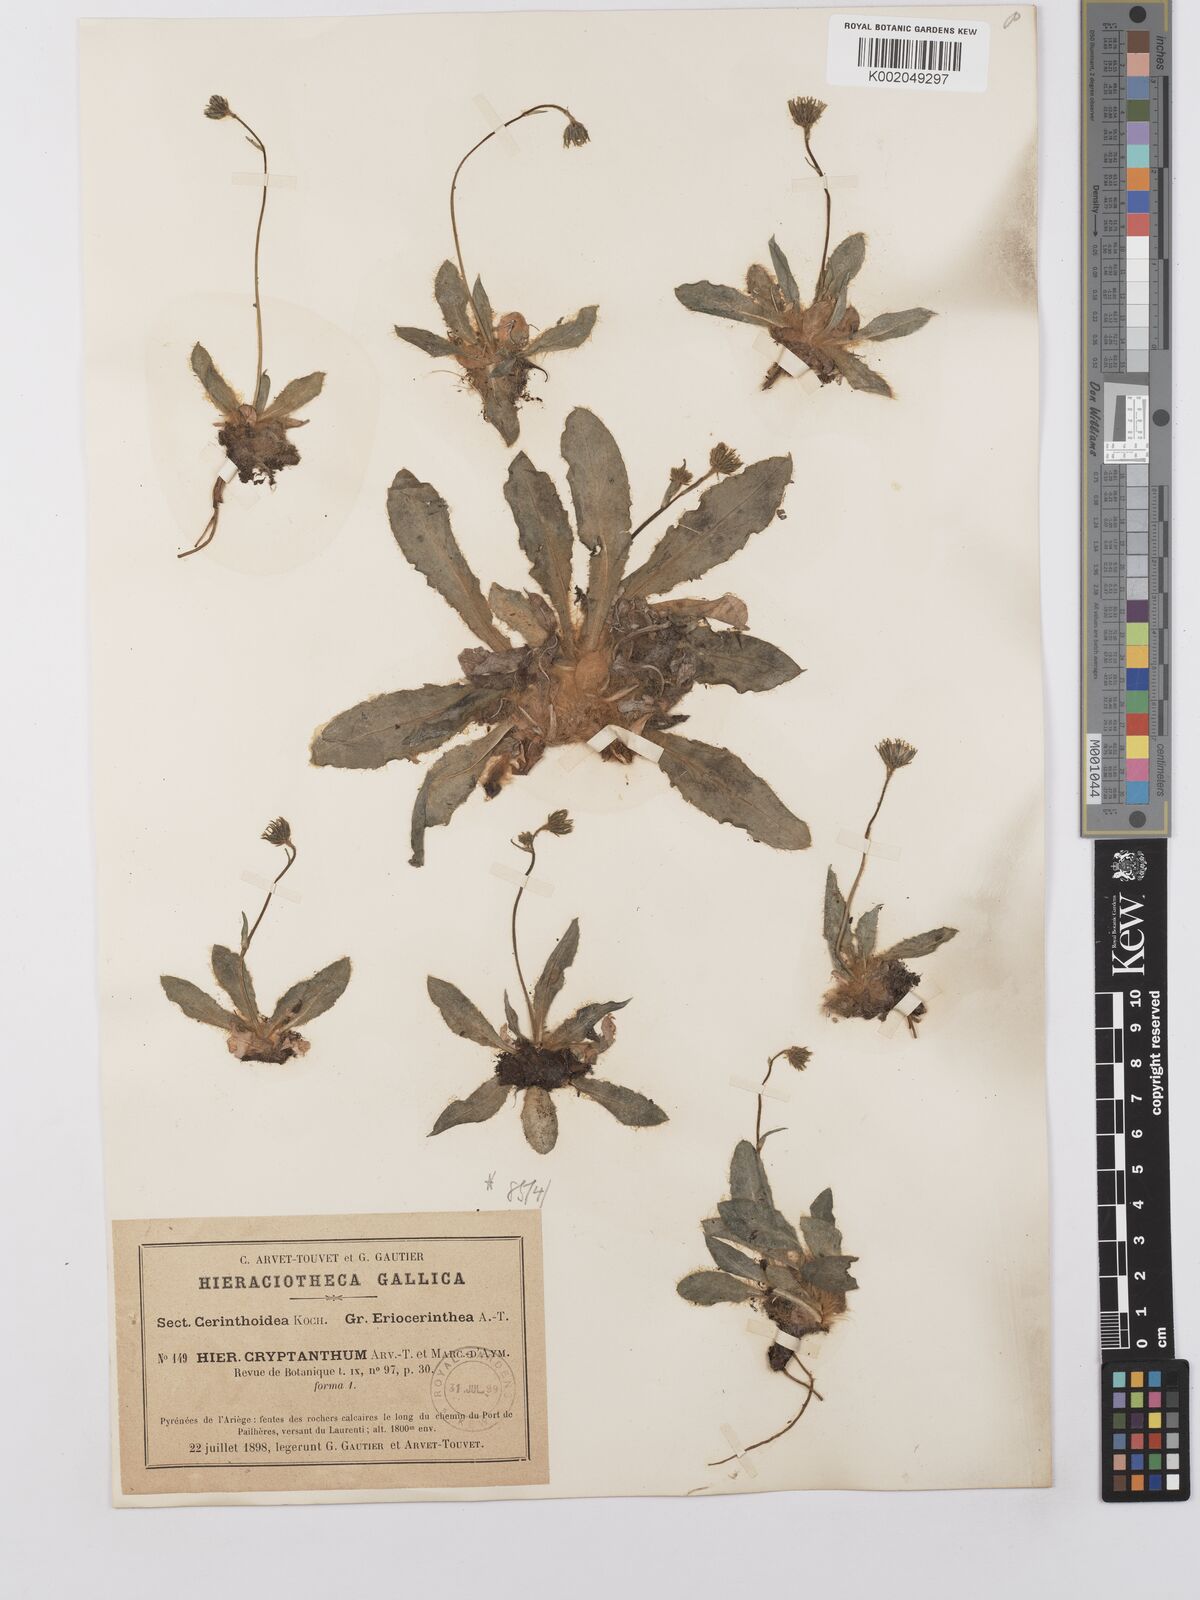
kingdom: Plantae
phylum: Tracheophyta
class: Magnoliopsida
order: Asterales
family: Asteraceae
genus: Hieracium
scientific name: Hieracium
